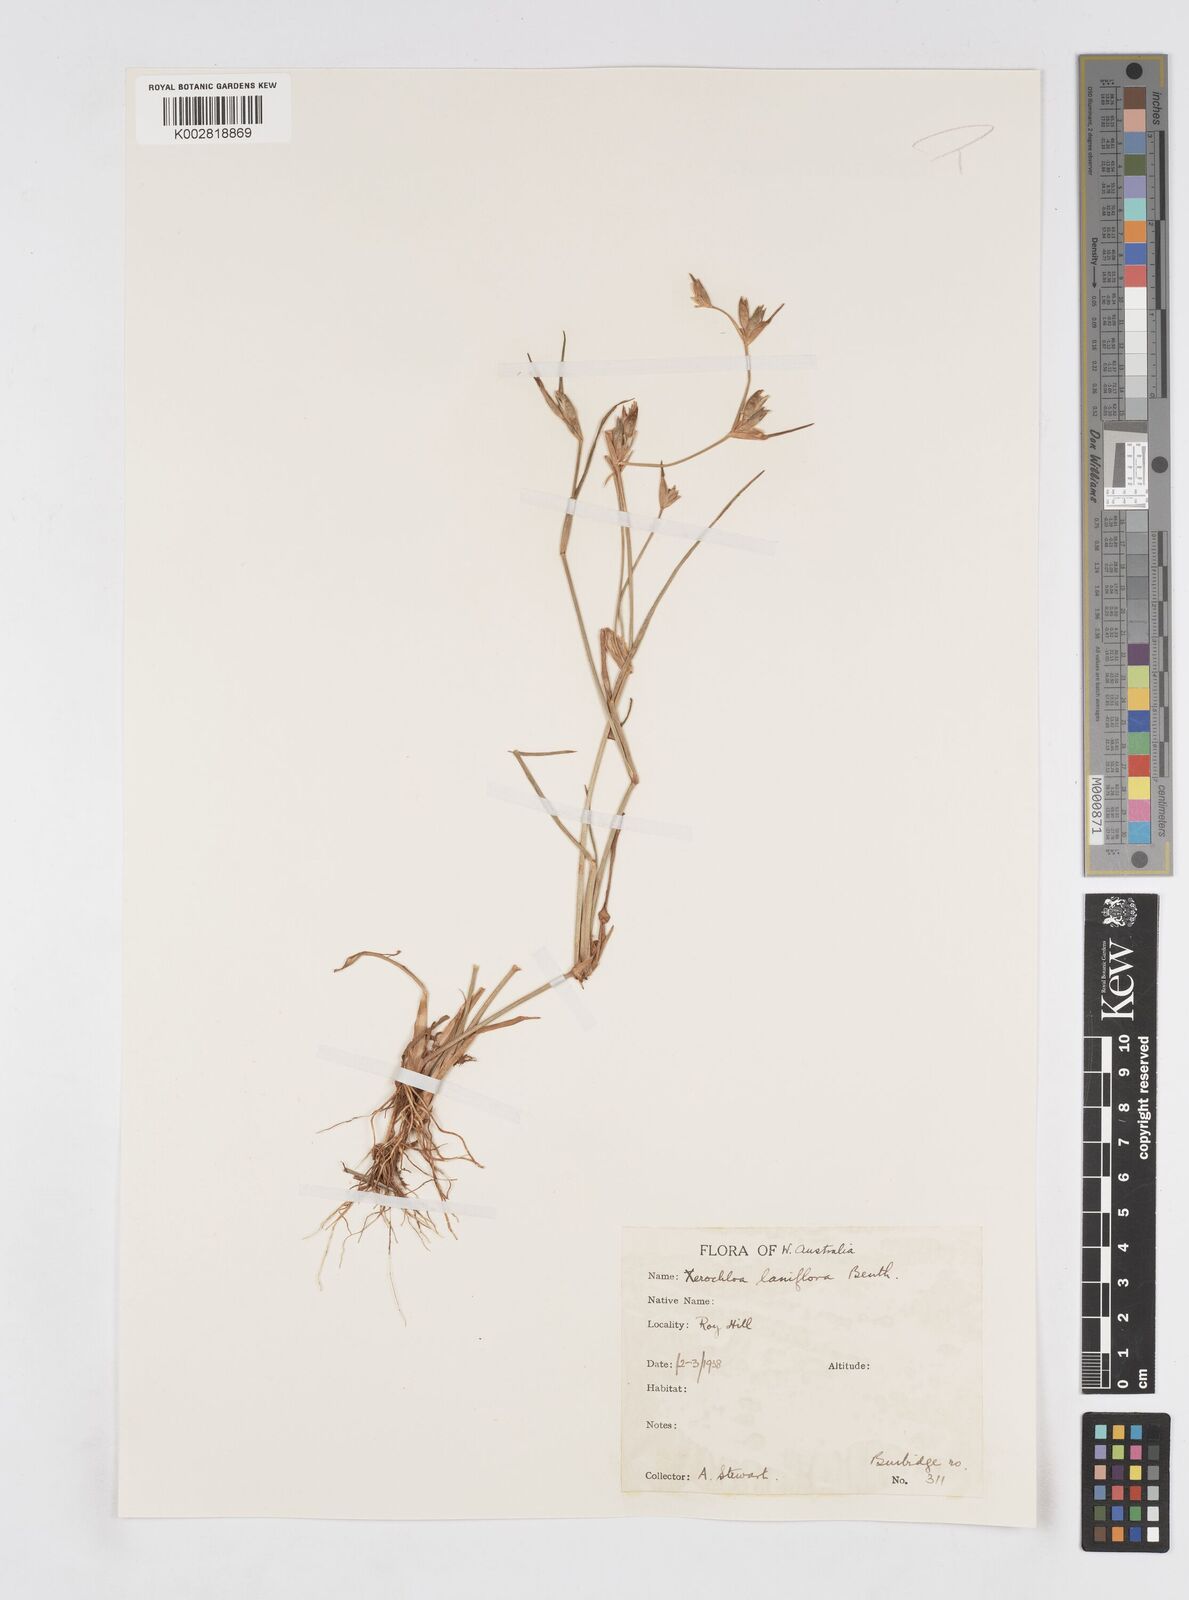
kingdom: Plantae
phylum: Tracheophyta
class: Liliopsida
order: Poales
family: Poaceae
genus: Xerochloa
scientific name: Xerochloa laniflora
